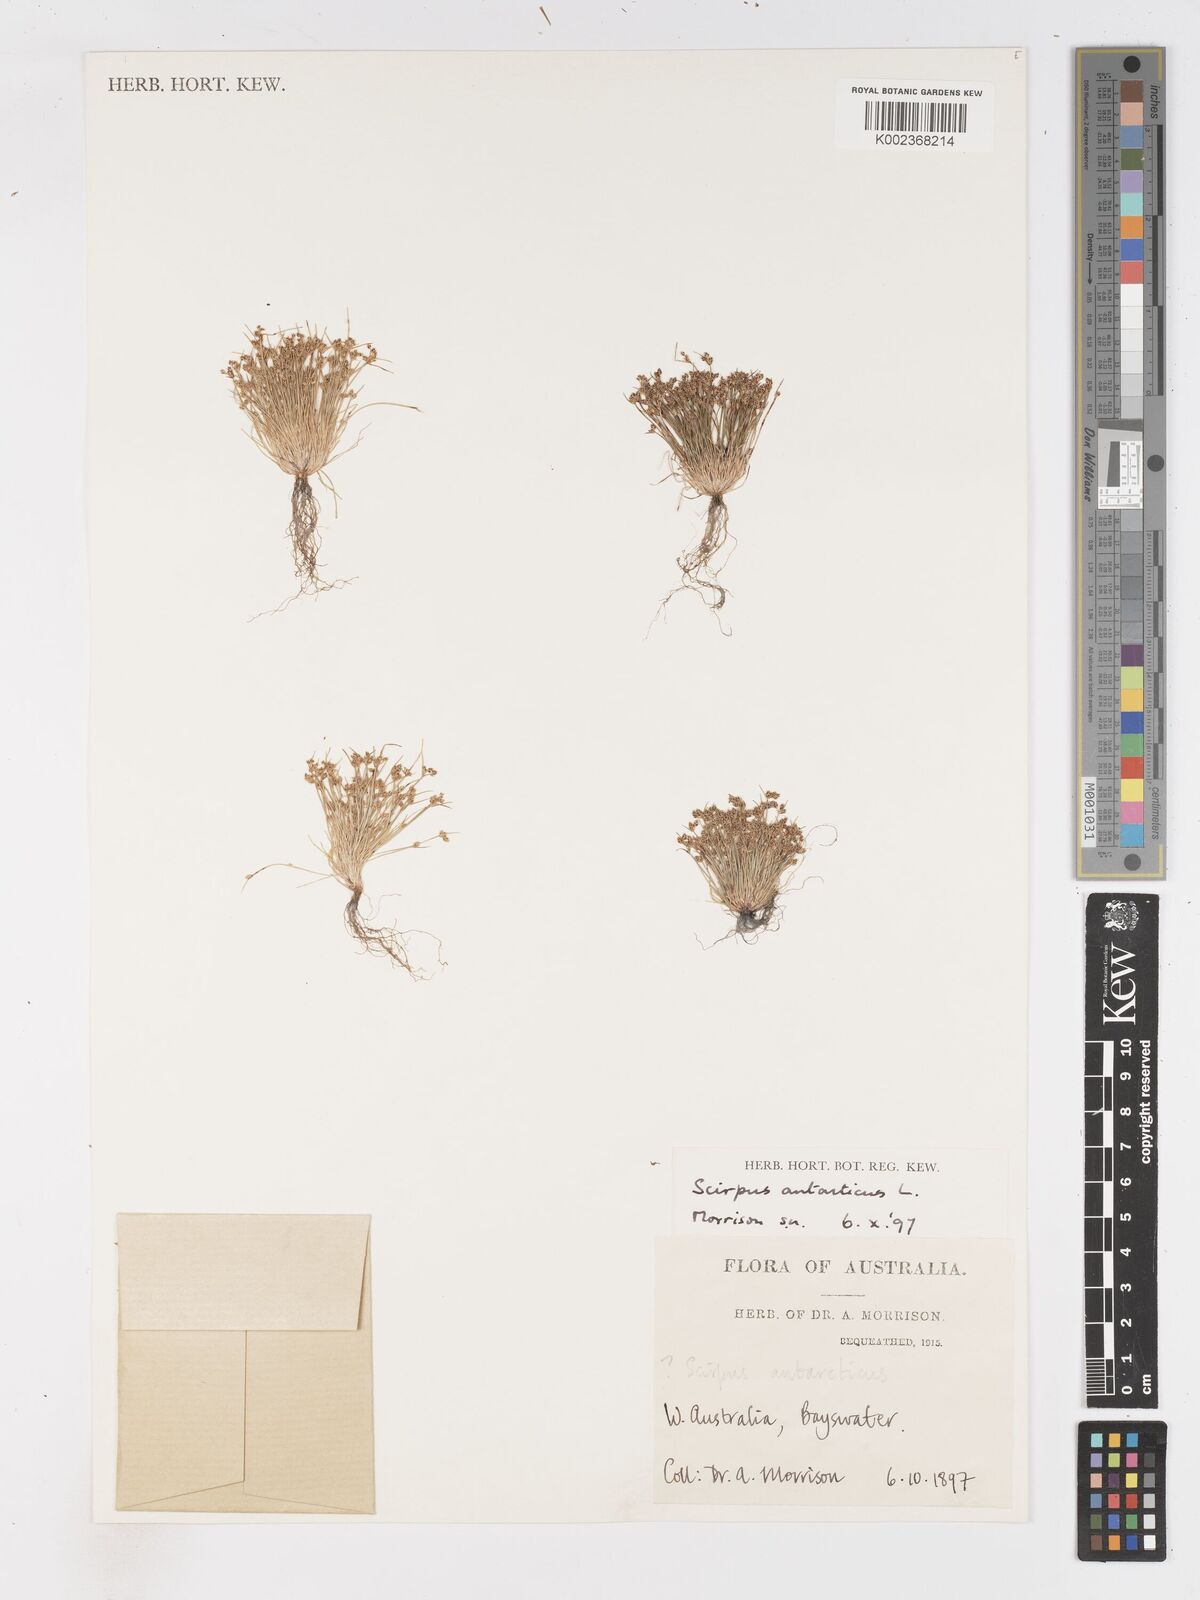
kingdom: Plantae
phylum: Tracheophyta
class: Liliopsida
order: Poales
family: Cyperaceae
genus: Isolepis
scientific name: Isolepis marginata
